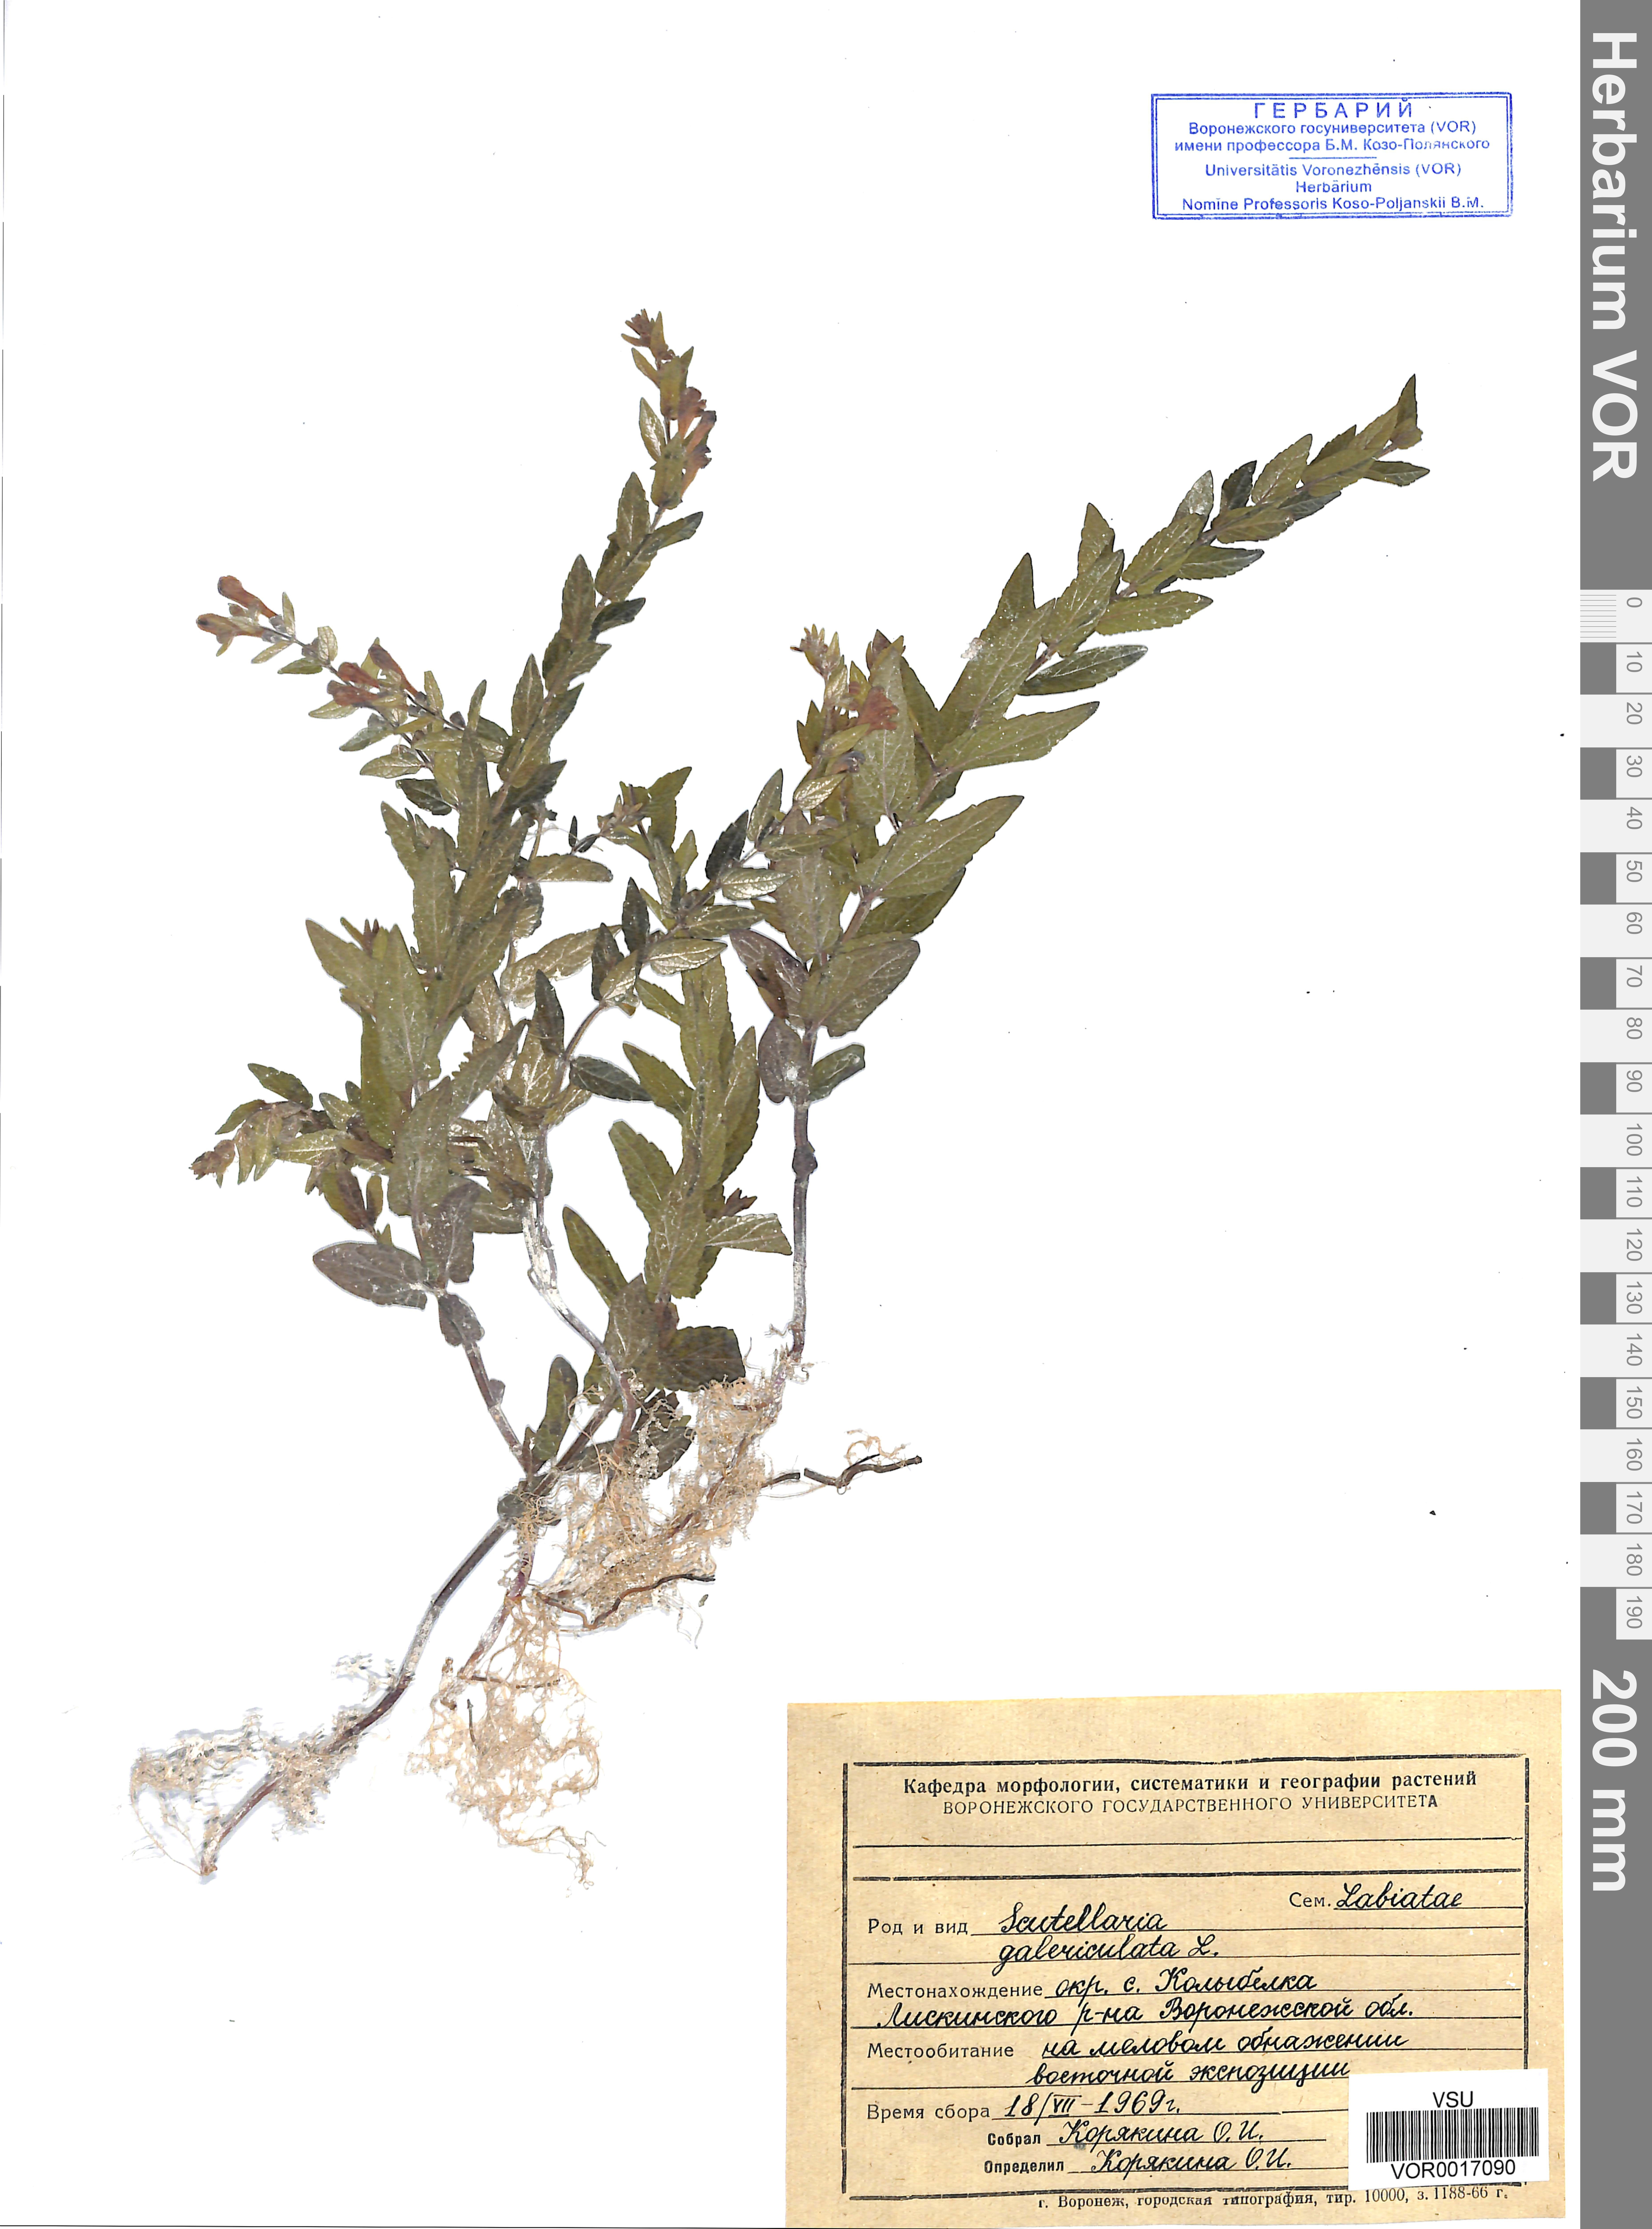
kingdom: Plantae
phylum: Tracheophyta
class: Magnoliopsida
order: Lamiales
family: Lamiaceae
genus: Scutellaria
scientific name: Scutellaria galericulata
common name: Skullcap
